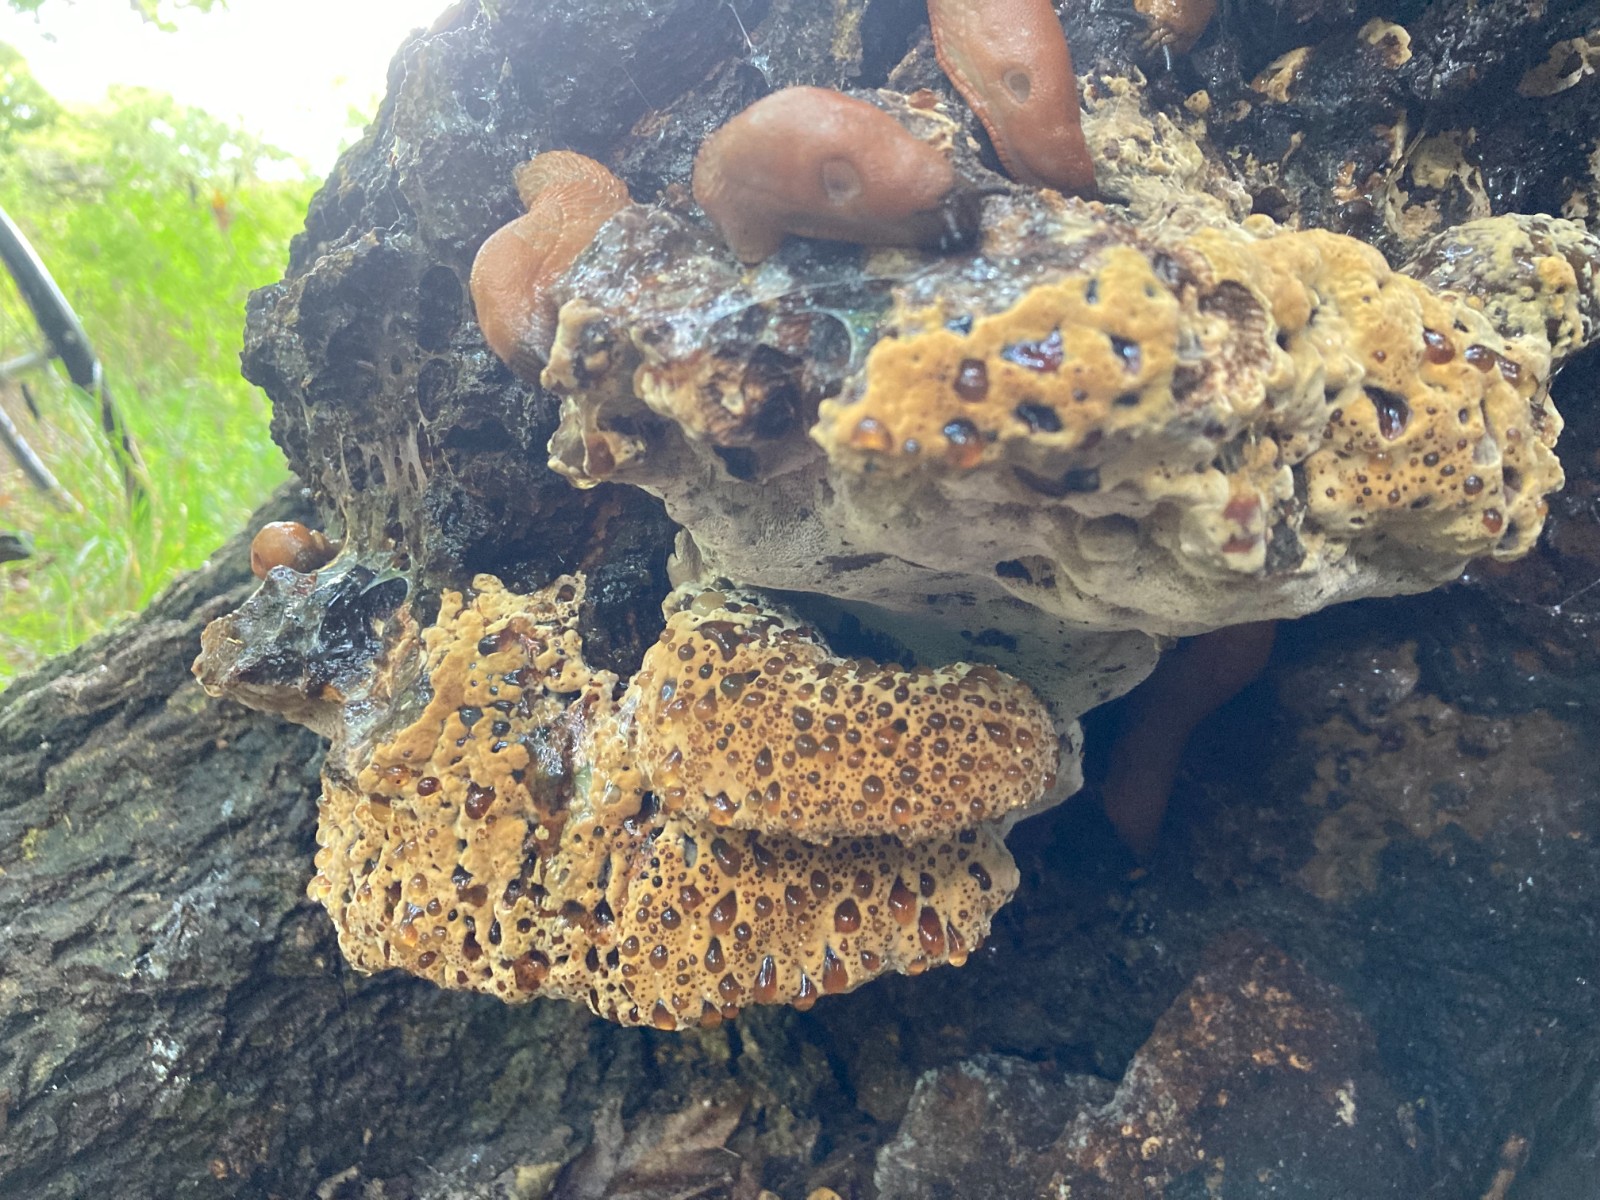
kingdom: Fungi
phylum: Basidiomycota
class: Agaricomycetes
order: Hymenochaetales
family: Hymenochaetaceae
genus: Pseudoinonotus
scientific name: Pseudoinonotus dryadeus
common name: ege-spejlporesvamp
